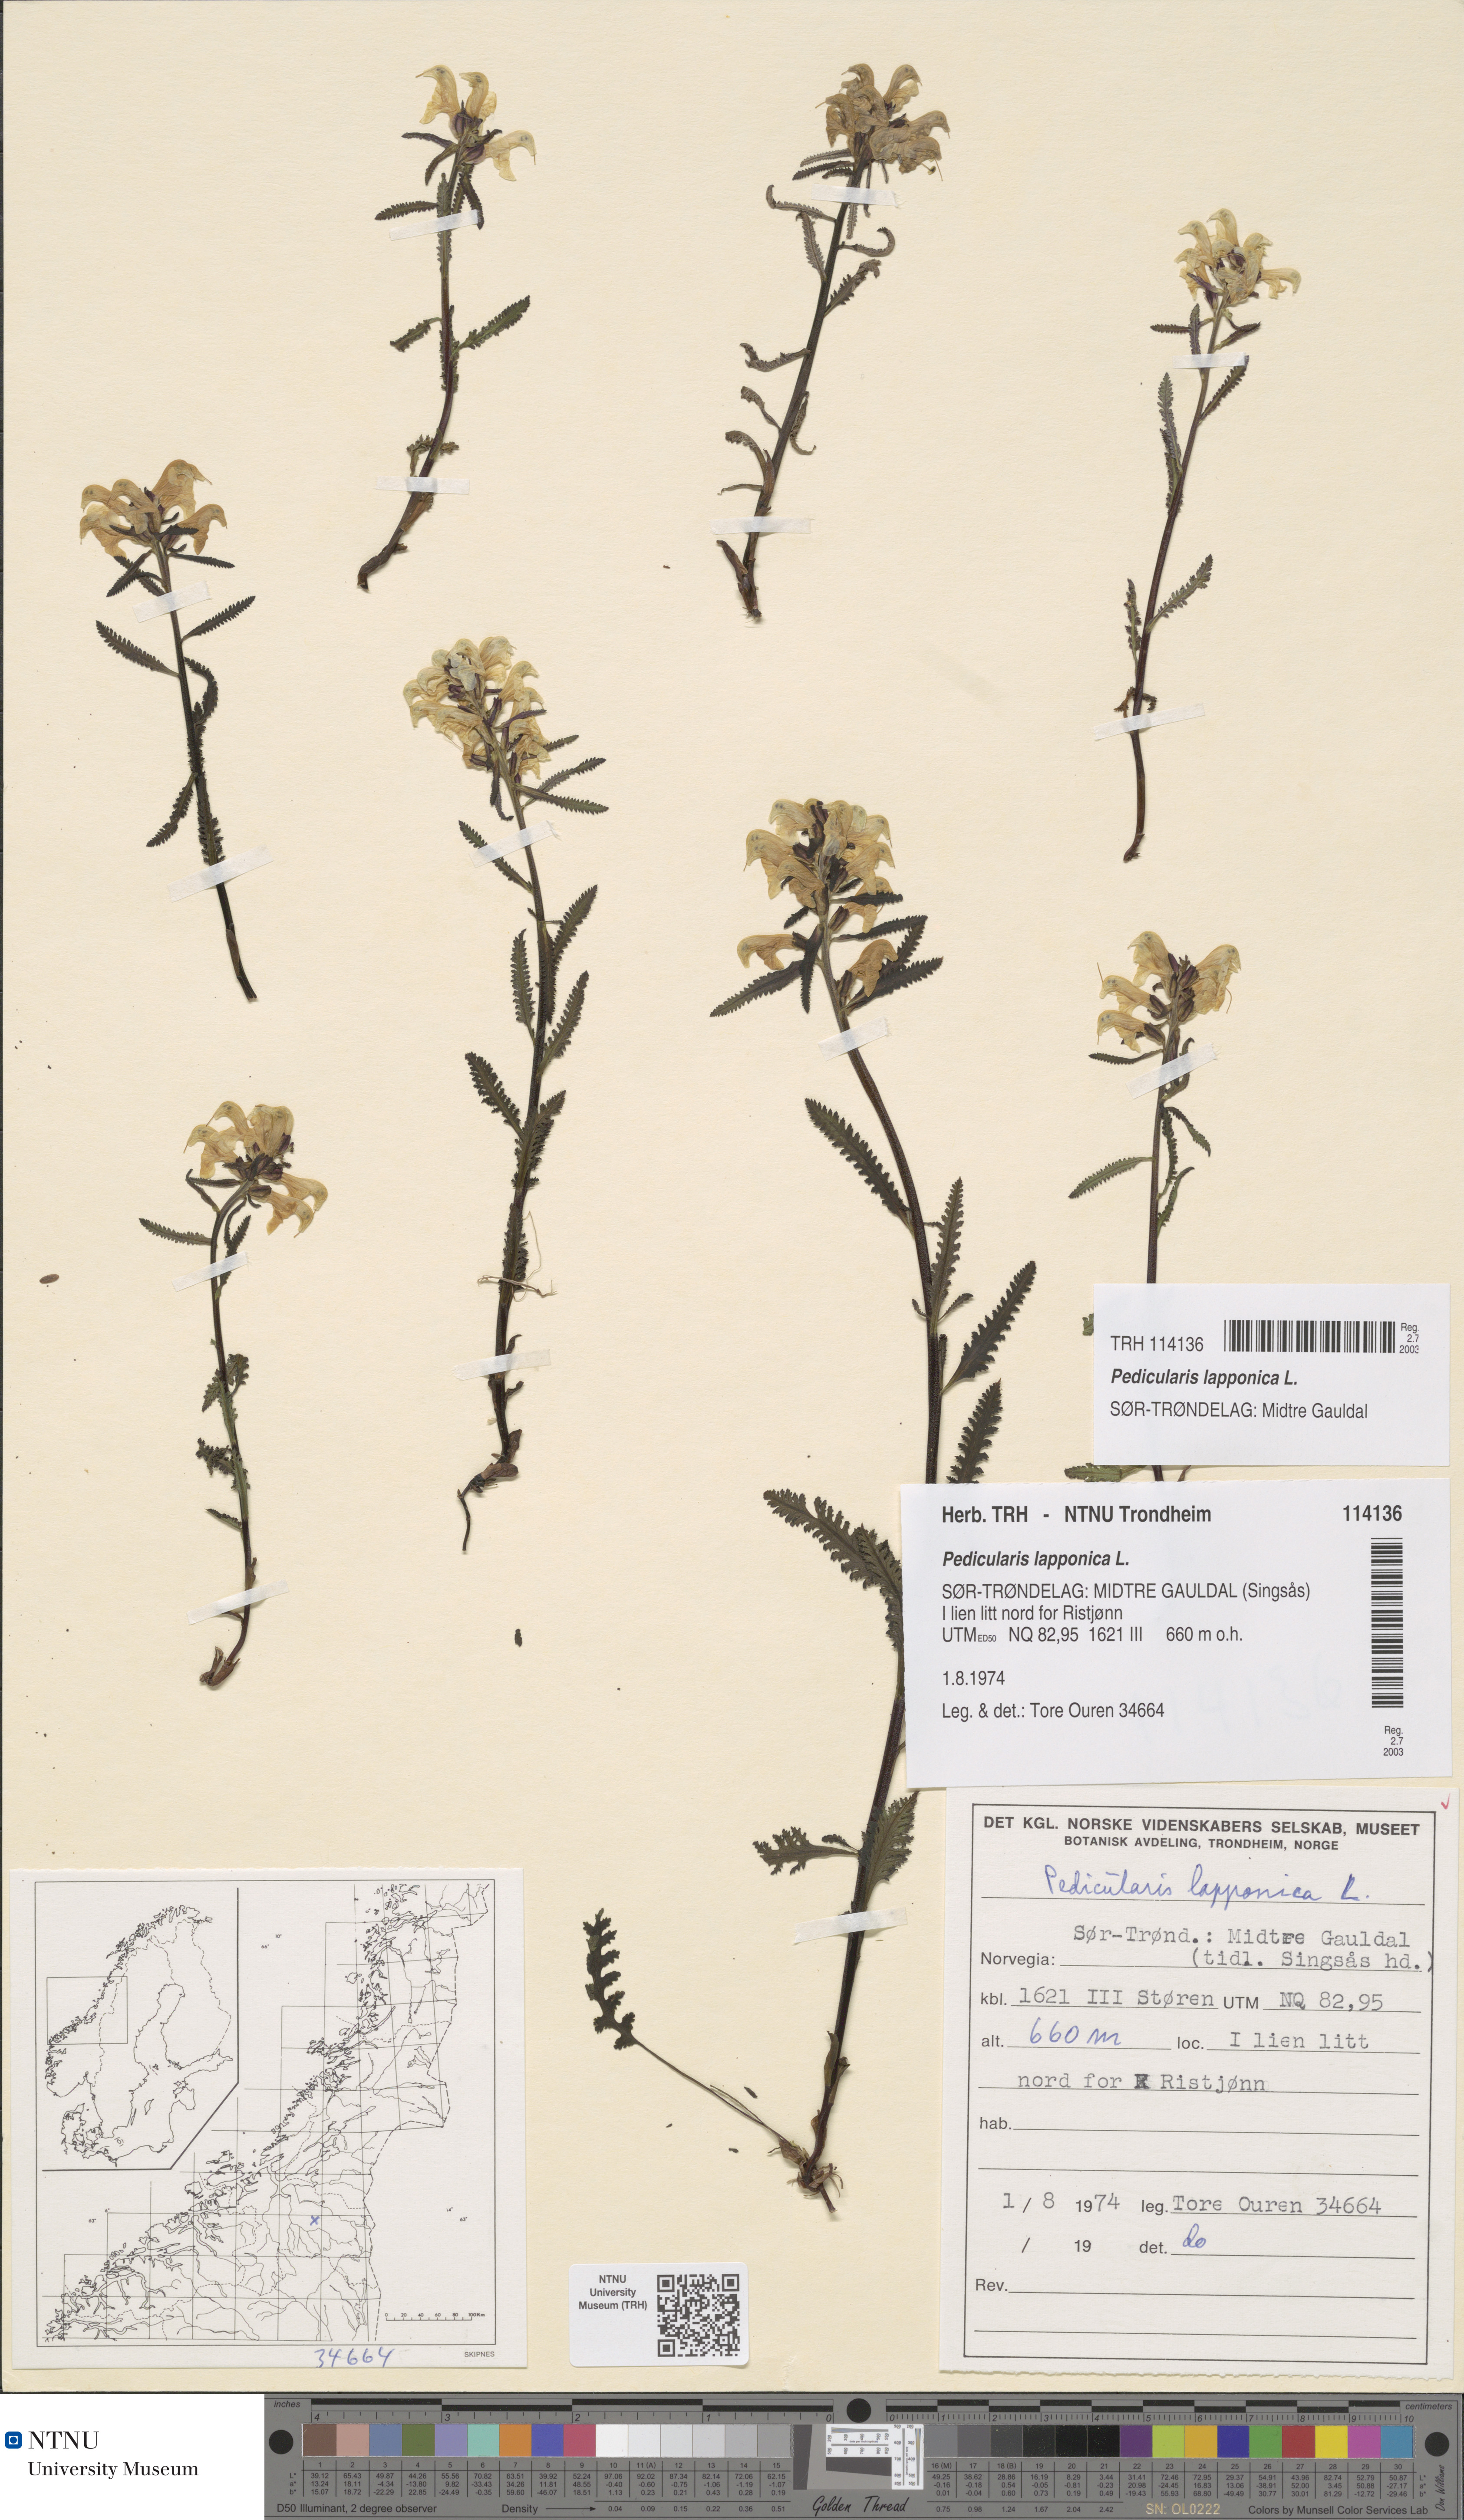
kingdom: Plantae
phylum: Tracheophyta
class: Magnoliopsida
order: Lamiales
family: Orobanchaceae
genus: Pedicularis
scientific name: Pedicularis lapponica
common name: Lapland lousewort
